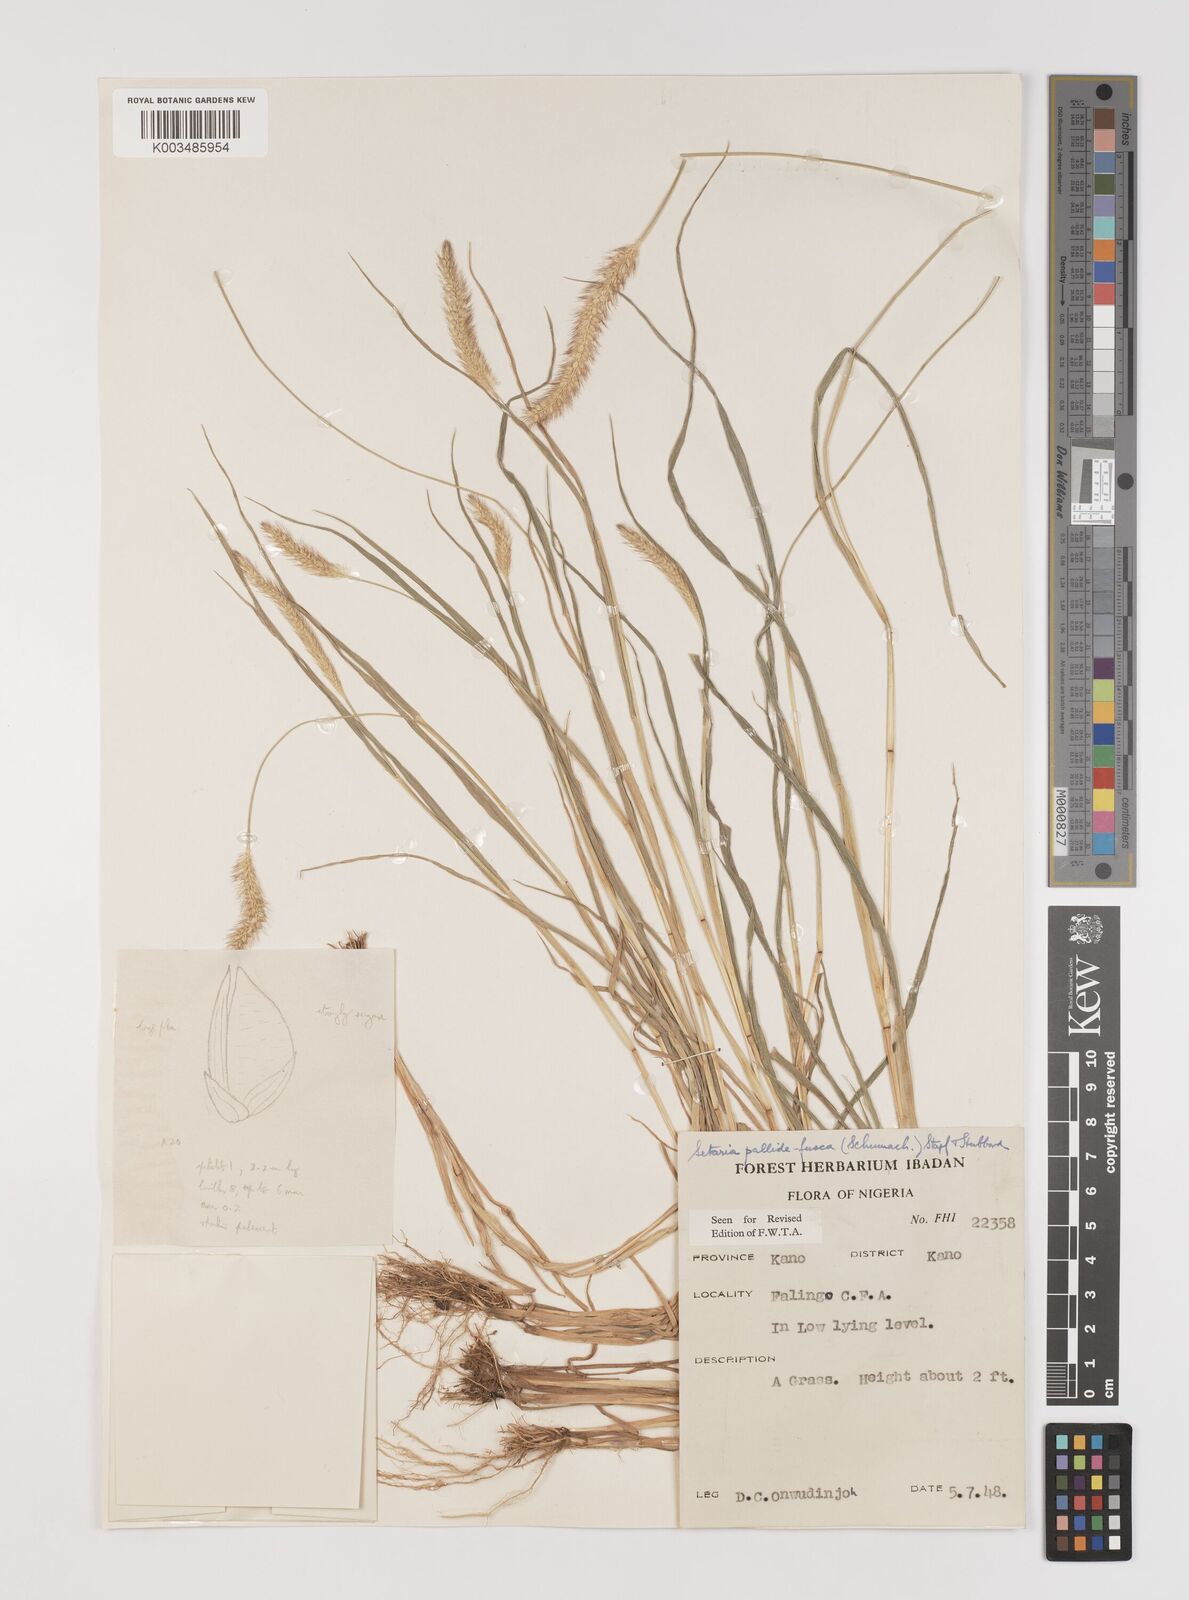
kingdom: Plantae
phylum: Tracheophyta
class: Liliopsida
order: Poales
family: Poaceae
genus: Setaria
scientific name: Setaria pumila
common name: Yellow bristle-grass
